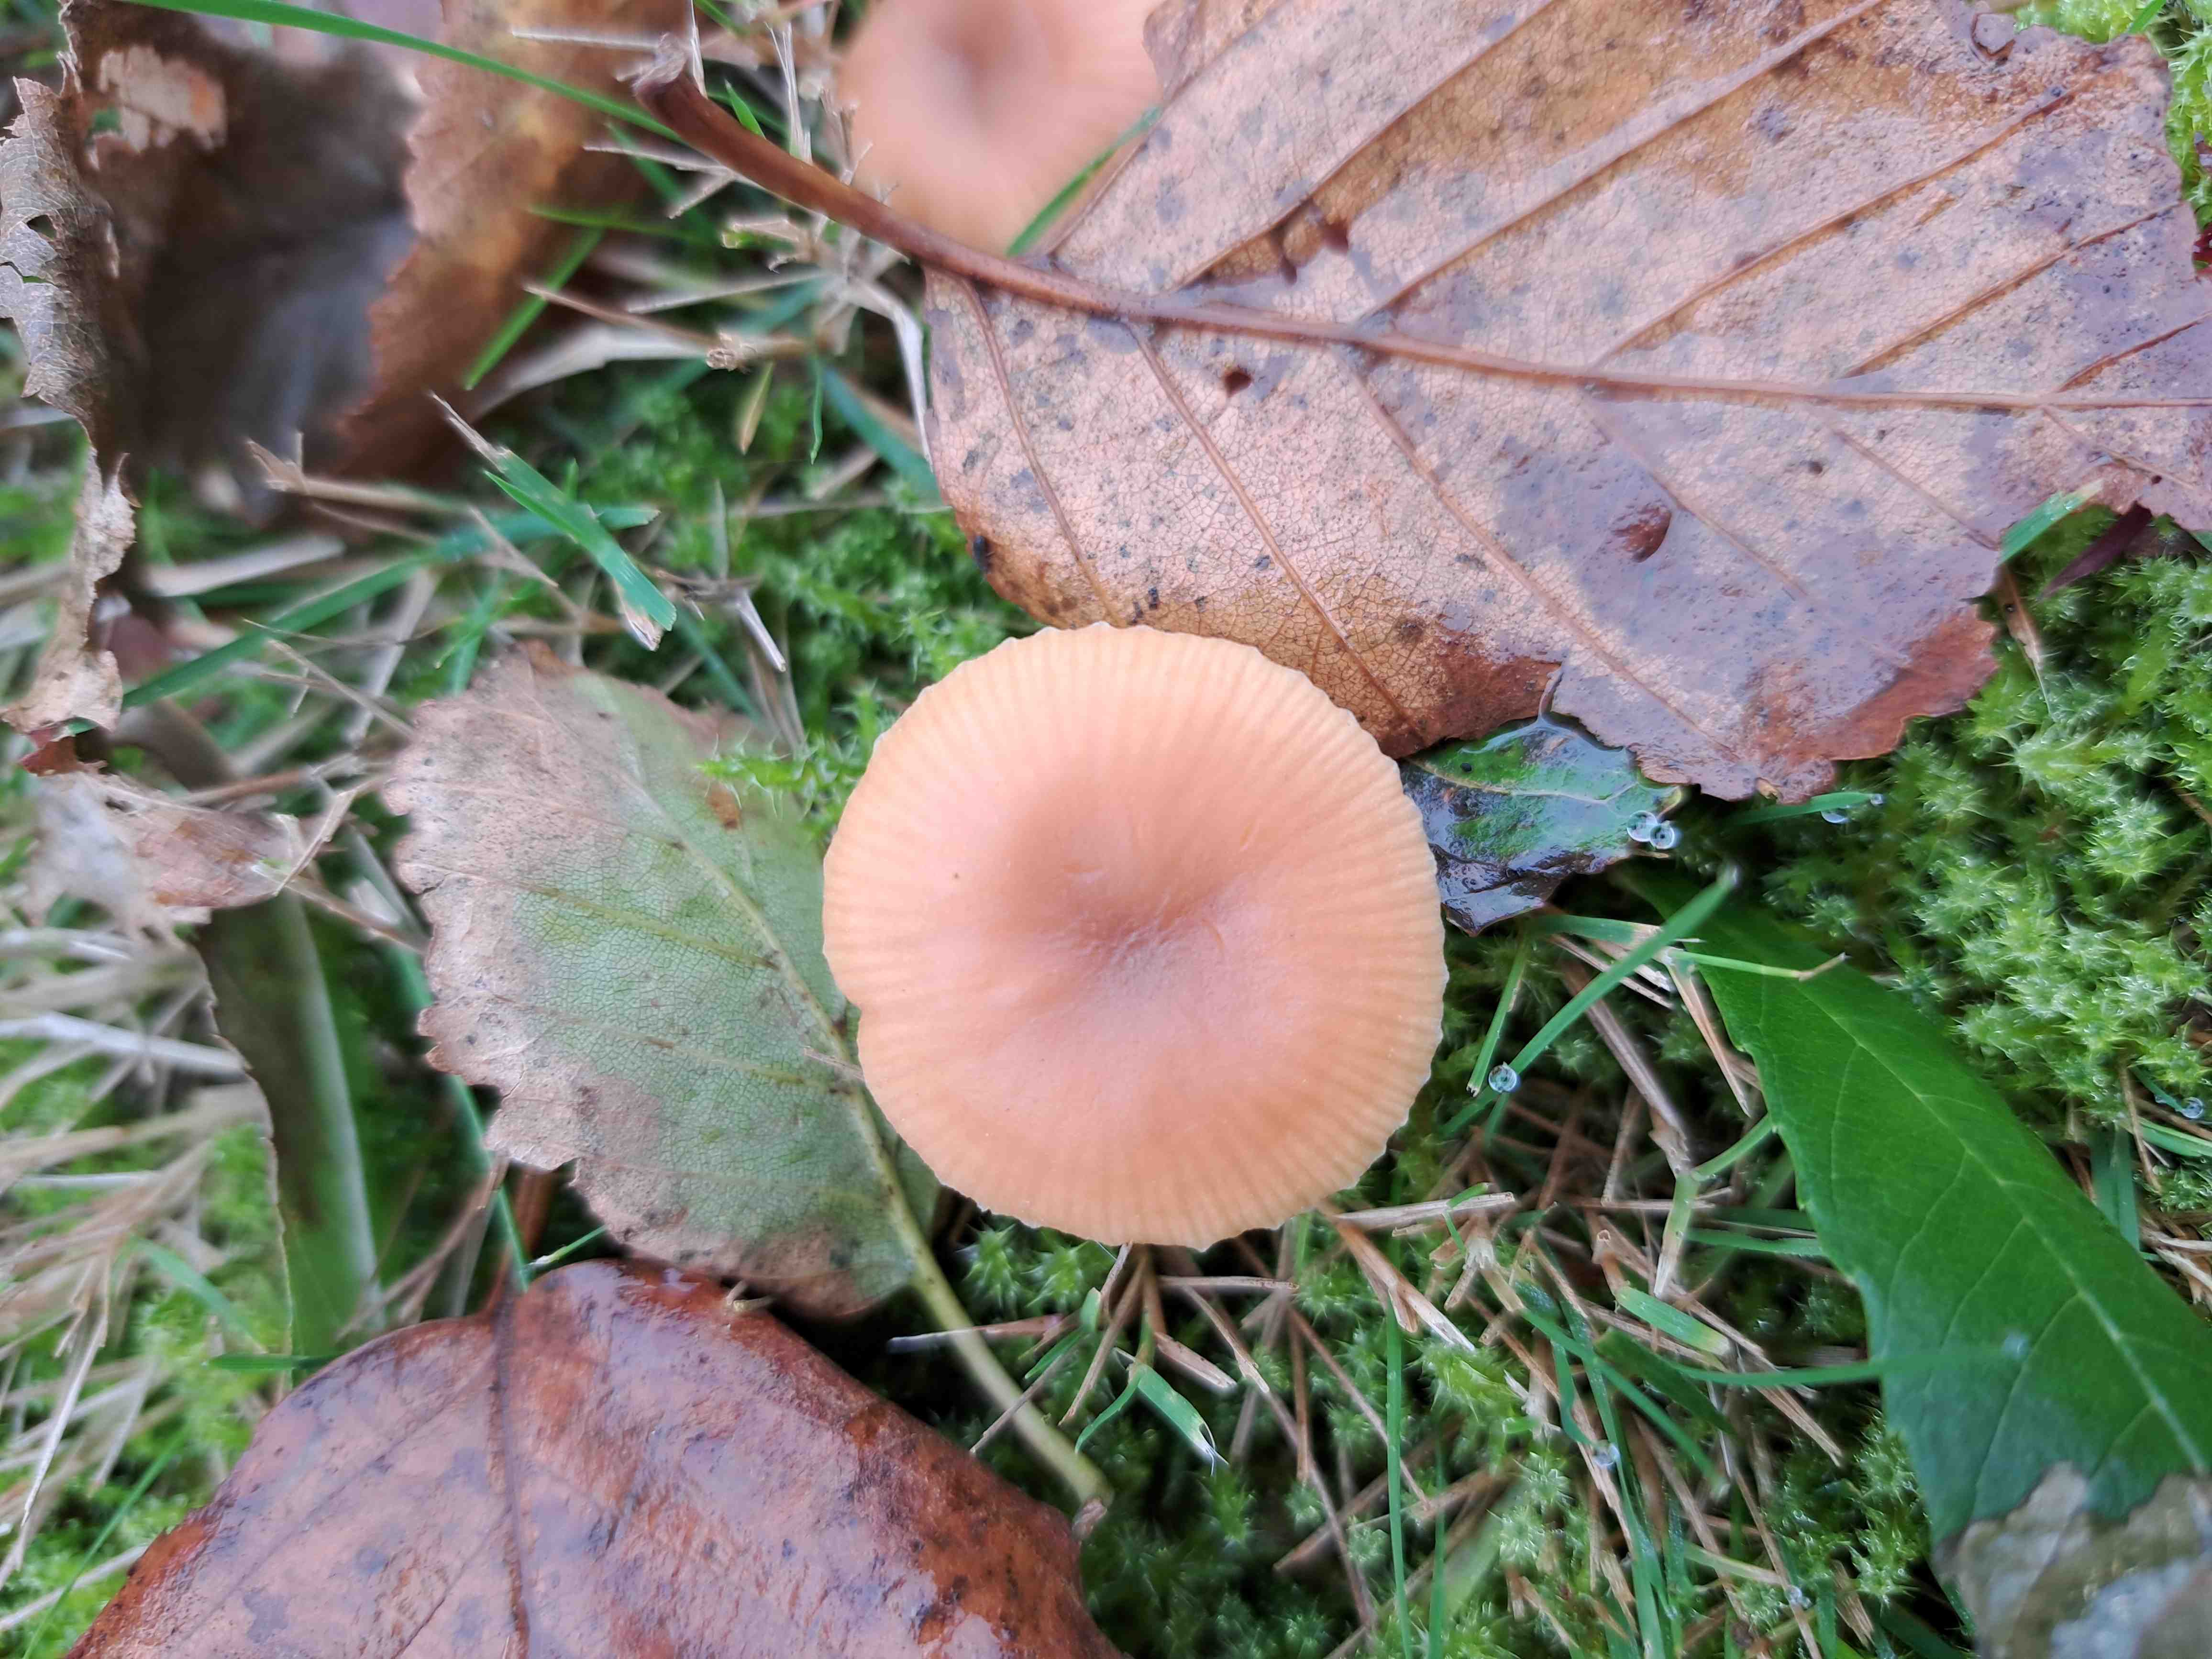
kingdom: Fungi
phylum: Basidiomycota
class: Agaricomycetes
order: Agaricales
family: Hydnangiaceae
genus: Laccaria
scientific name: Laccaria laccata
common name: rød ametysthat
